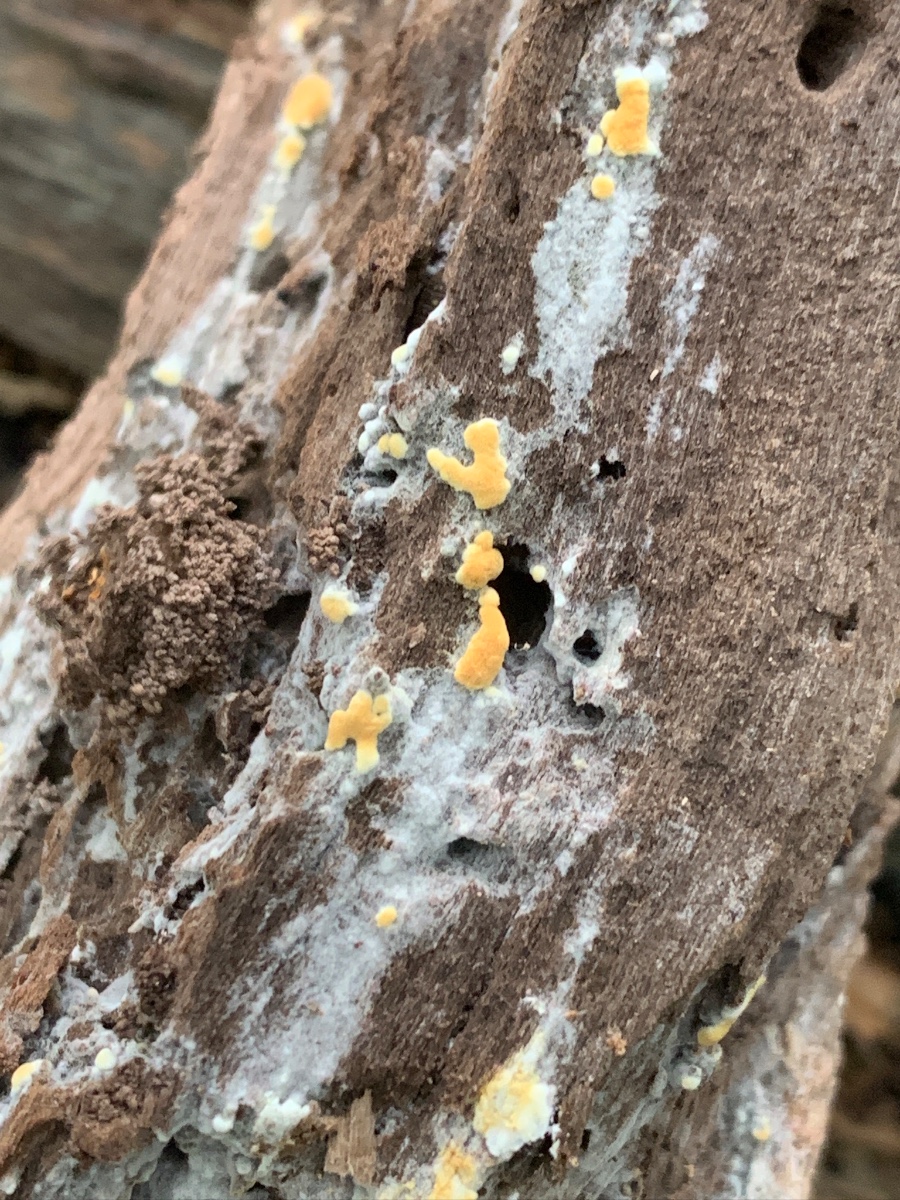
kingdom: Fungi
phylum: Basidiomycota
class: Agaricomycetes
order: Cantharellales
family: Botryobasidiaceae
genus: Botryobasidium
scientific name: Botryobasidium aureum
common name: gylden spindhinde
